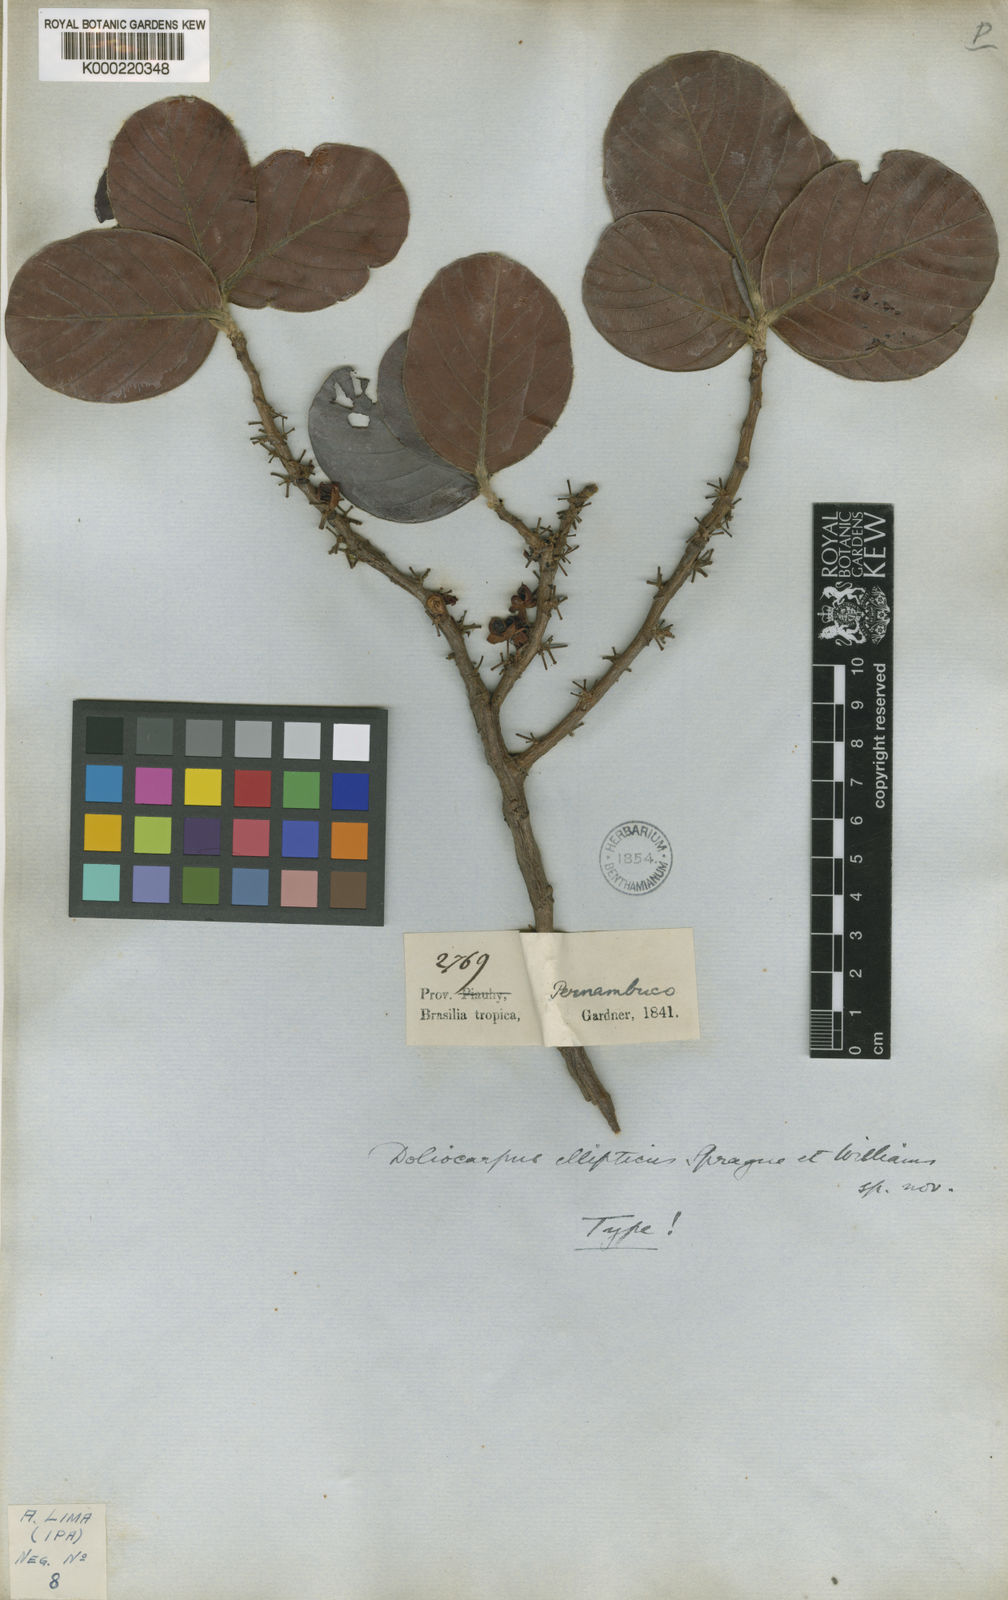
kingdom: Plantae
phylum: Tracheophyta
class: Magnoliopsida
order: Dilleniales
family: Dilleniaceae
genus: Doliocarpus
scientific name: Doliocarpus
